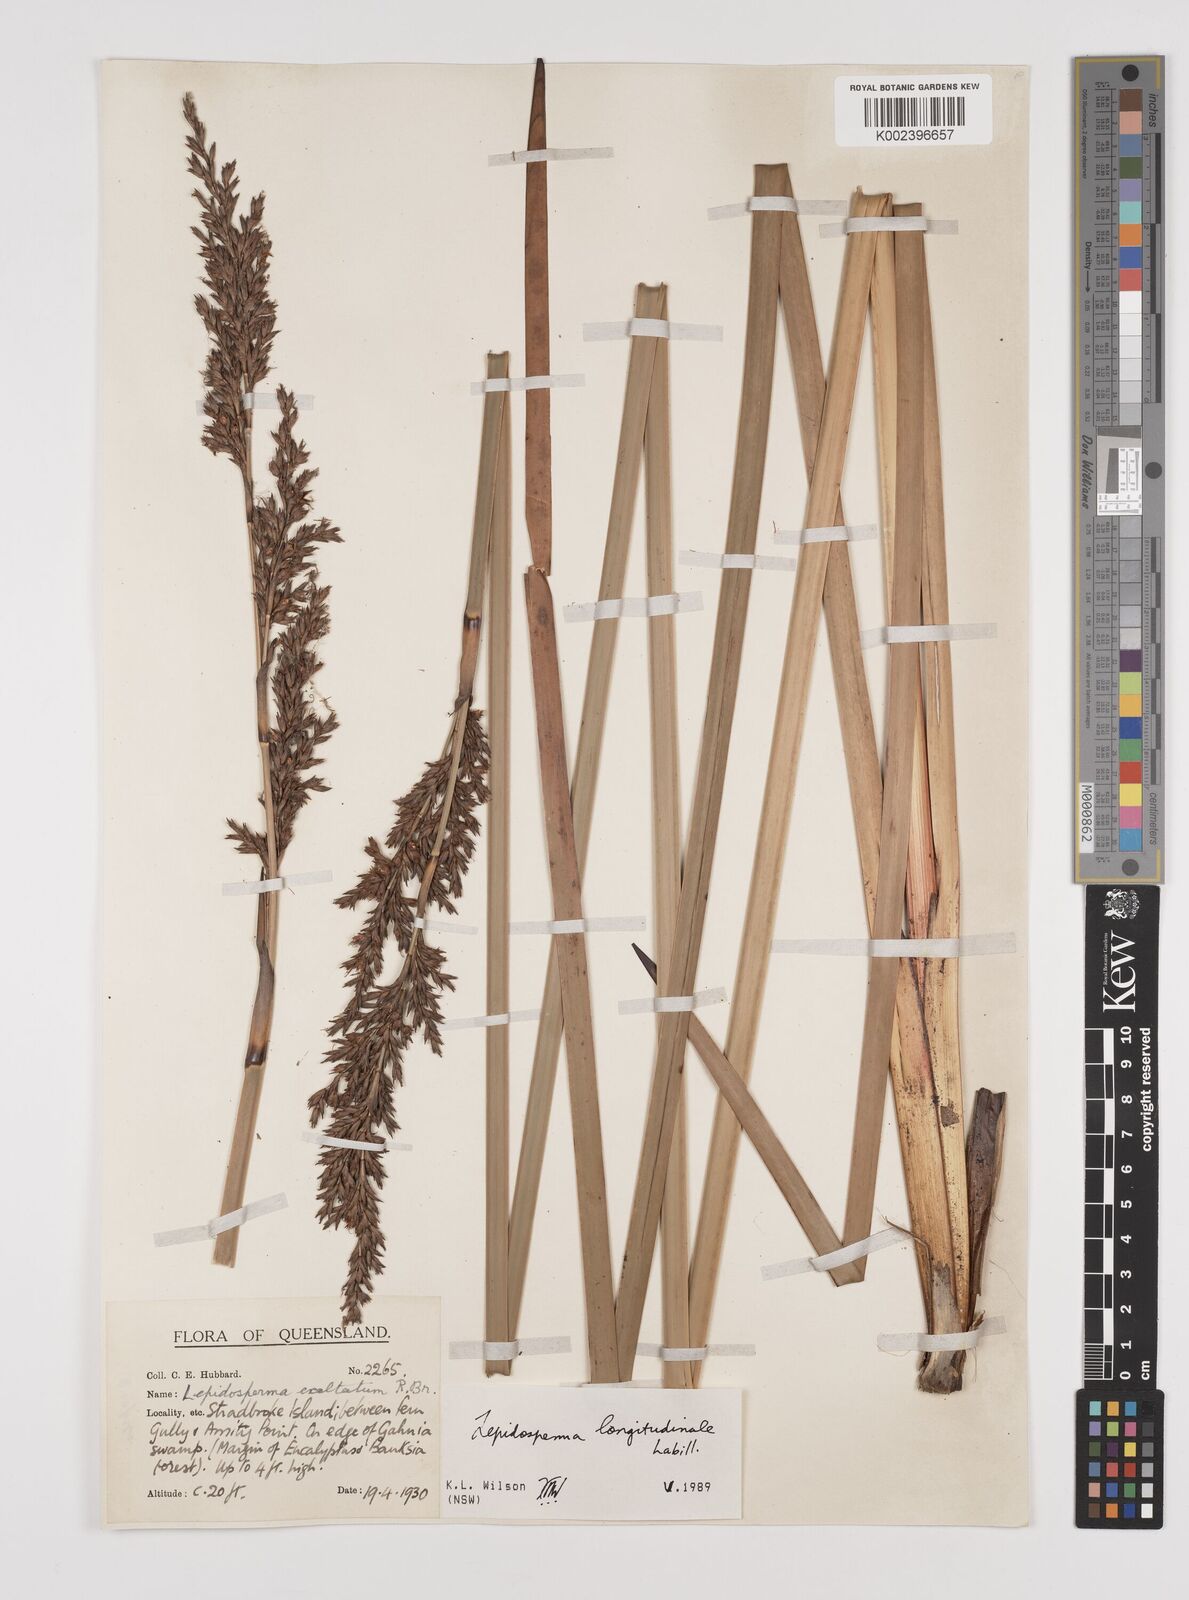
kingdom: Plantae
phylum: Tracheophyta
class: Liliopsida
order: Poales
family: Cyperaceae
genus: Lepidosperma
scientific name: Lepidosperma longitudinale
